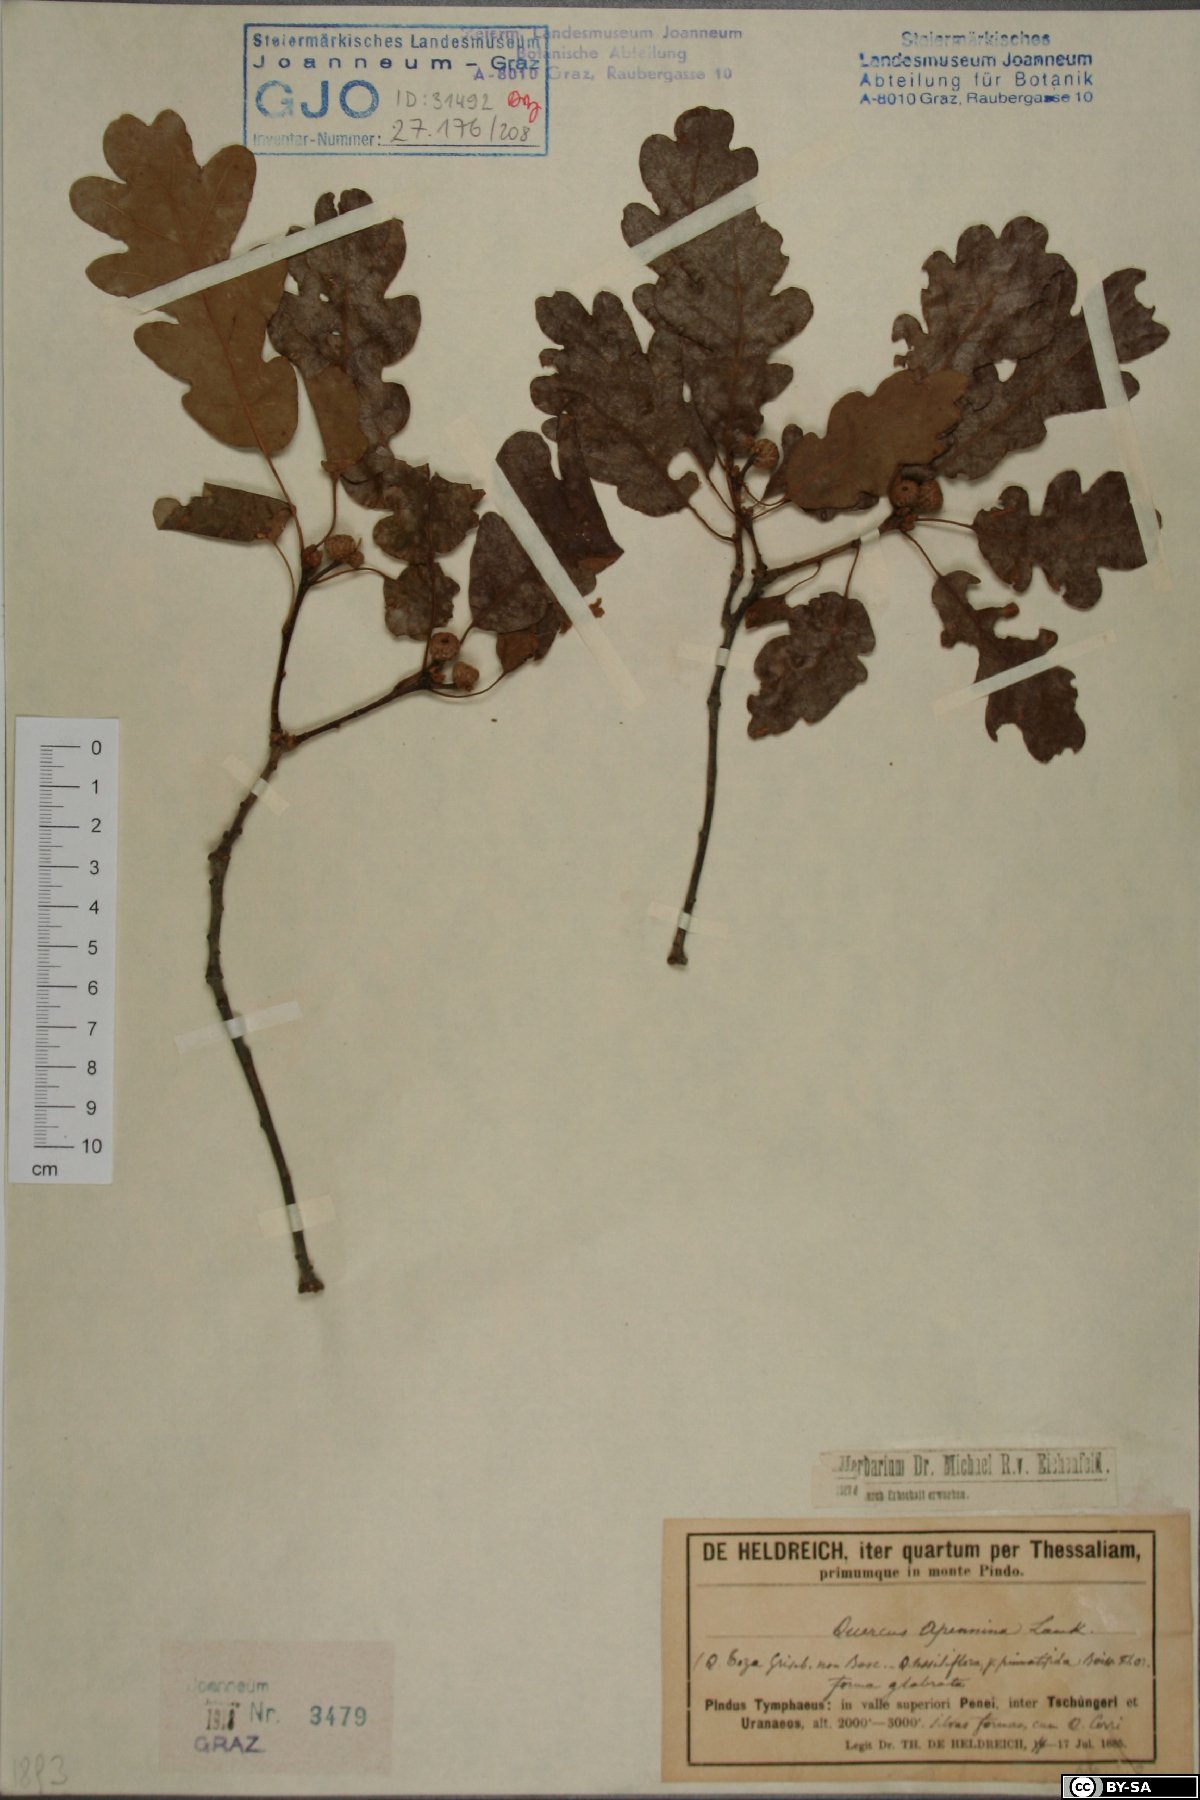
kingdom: Plantae
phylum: Tracheophyta
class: Magnoliopsida
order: Fagales
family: Fagaceae
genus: Quercus
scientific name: Quercus pubescens
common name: Downy oak
